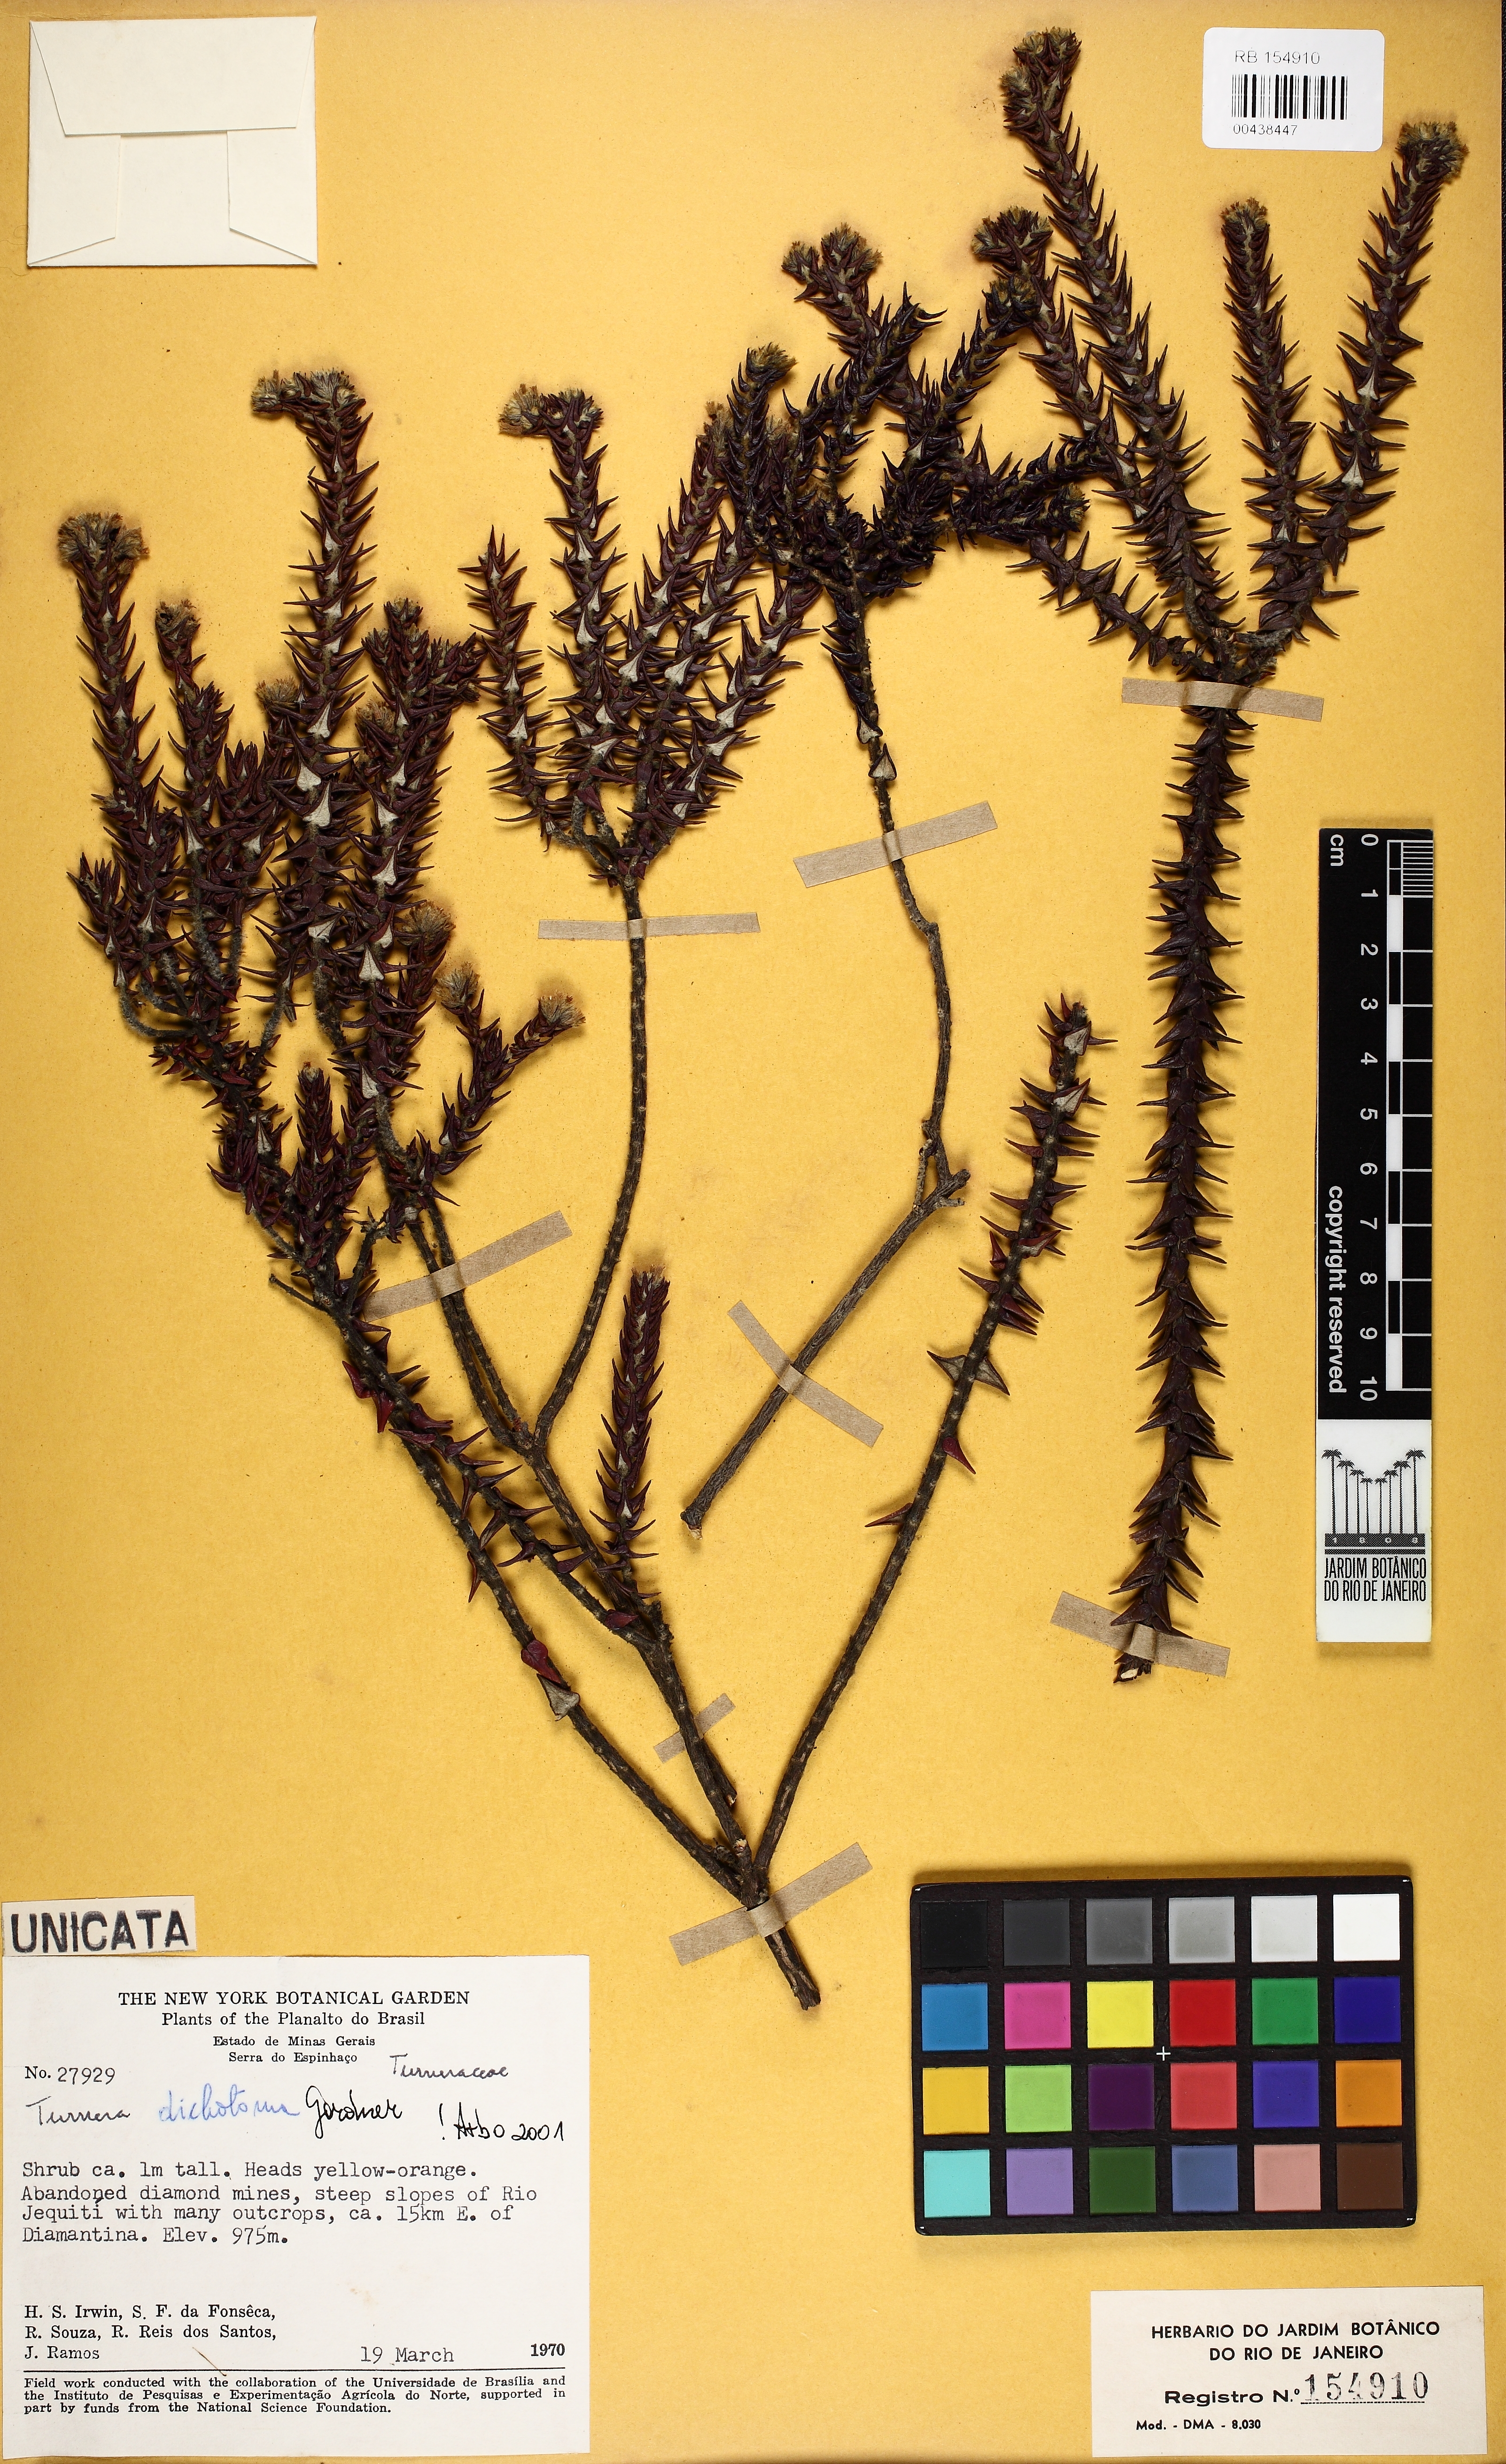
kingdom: Plantae
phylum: Tracheophyta
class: Magnoliopsida
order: Malpighiales
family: Turneraceae
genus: Turnera
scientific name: Turnera dichotoma
